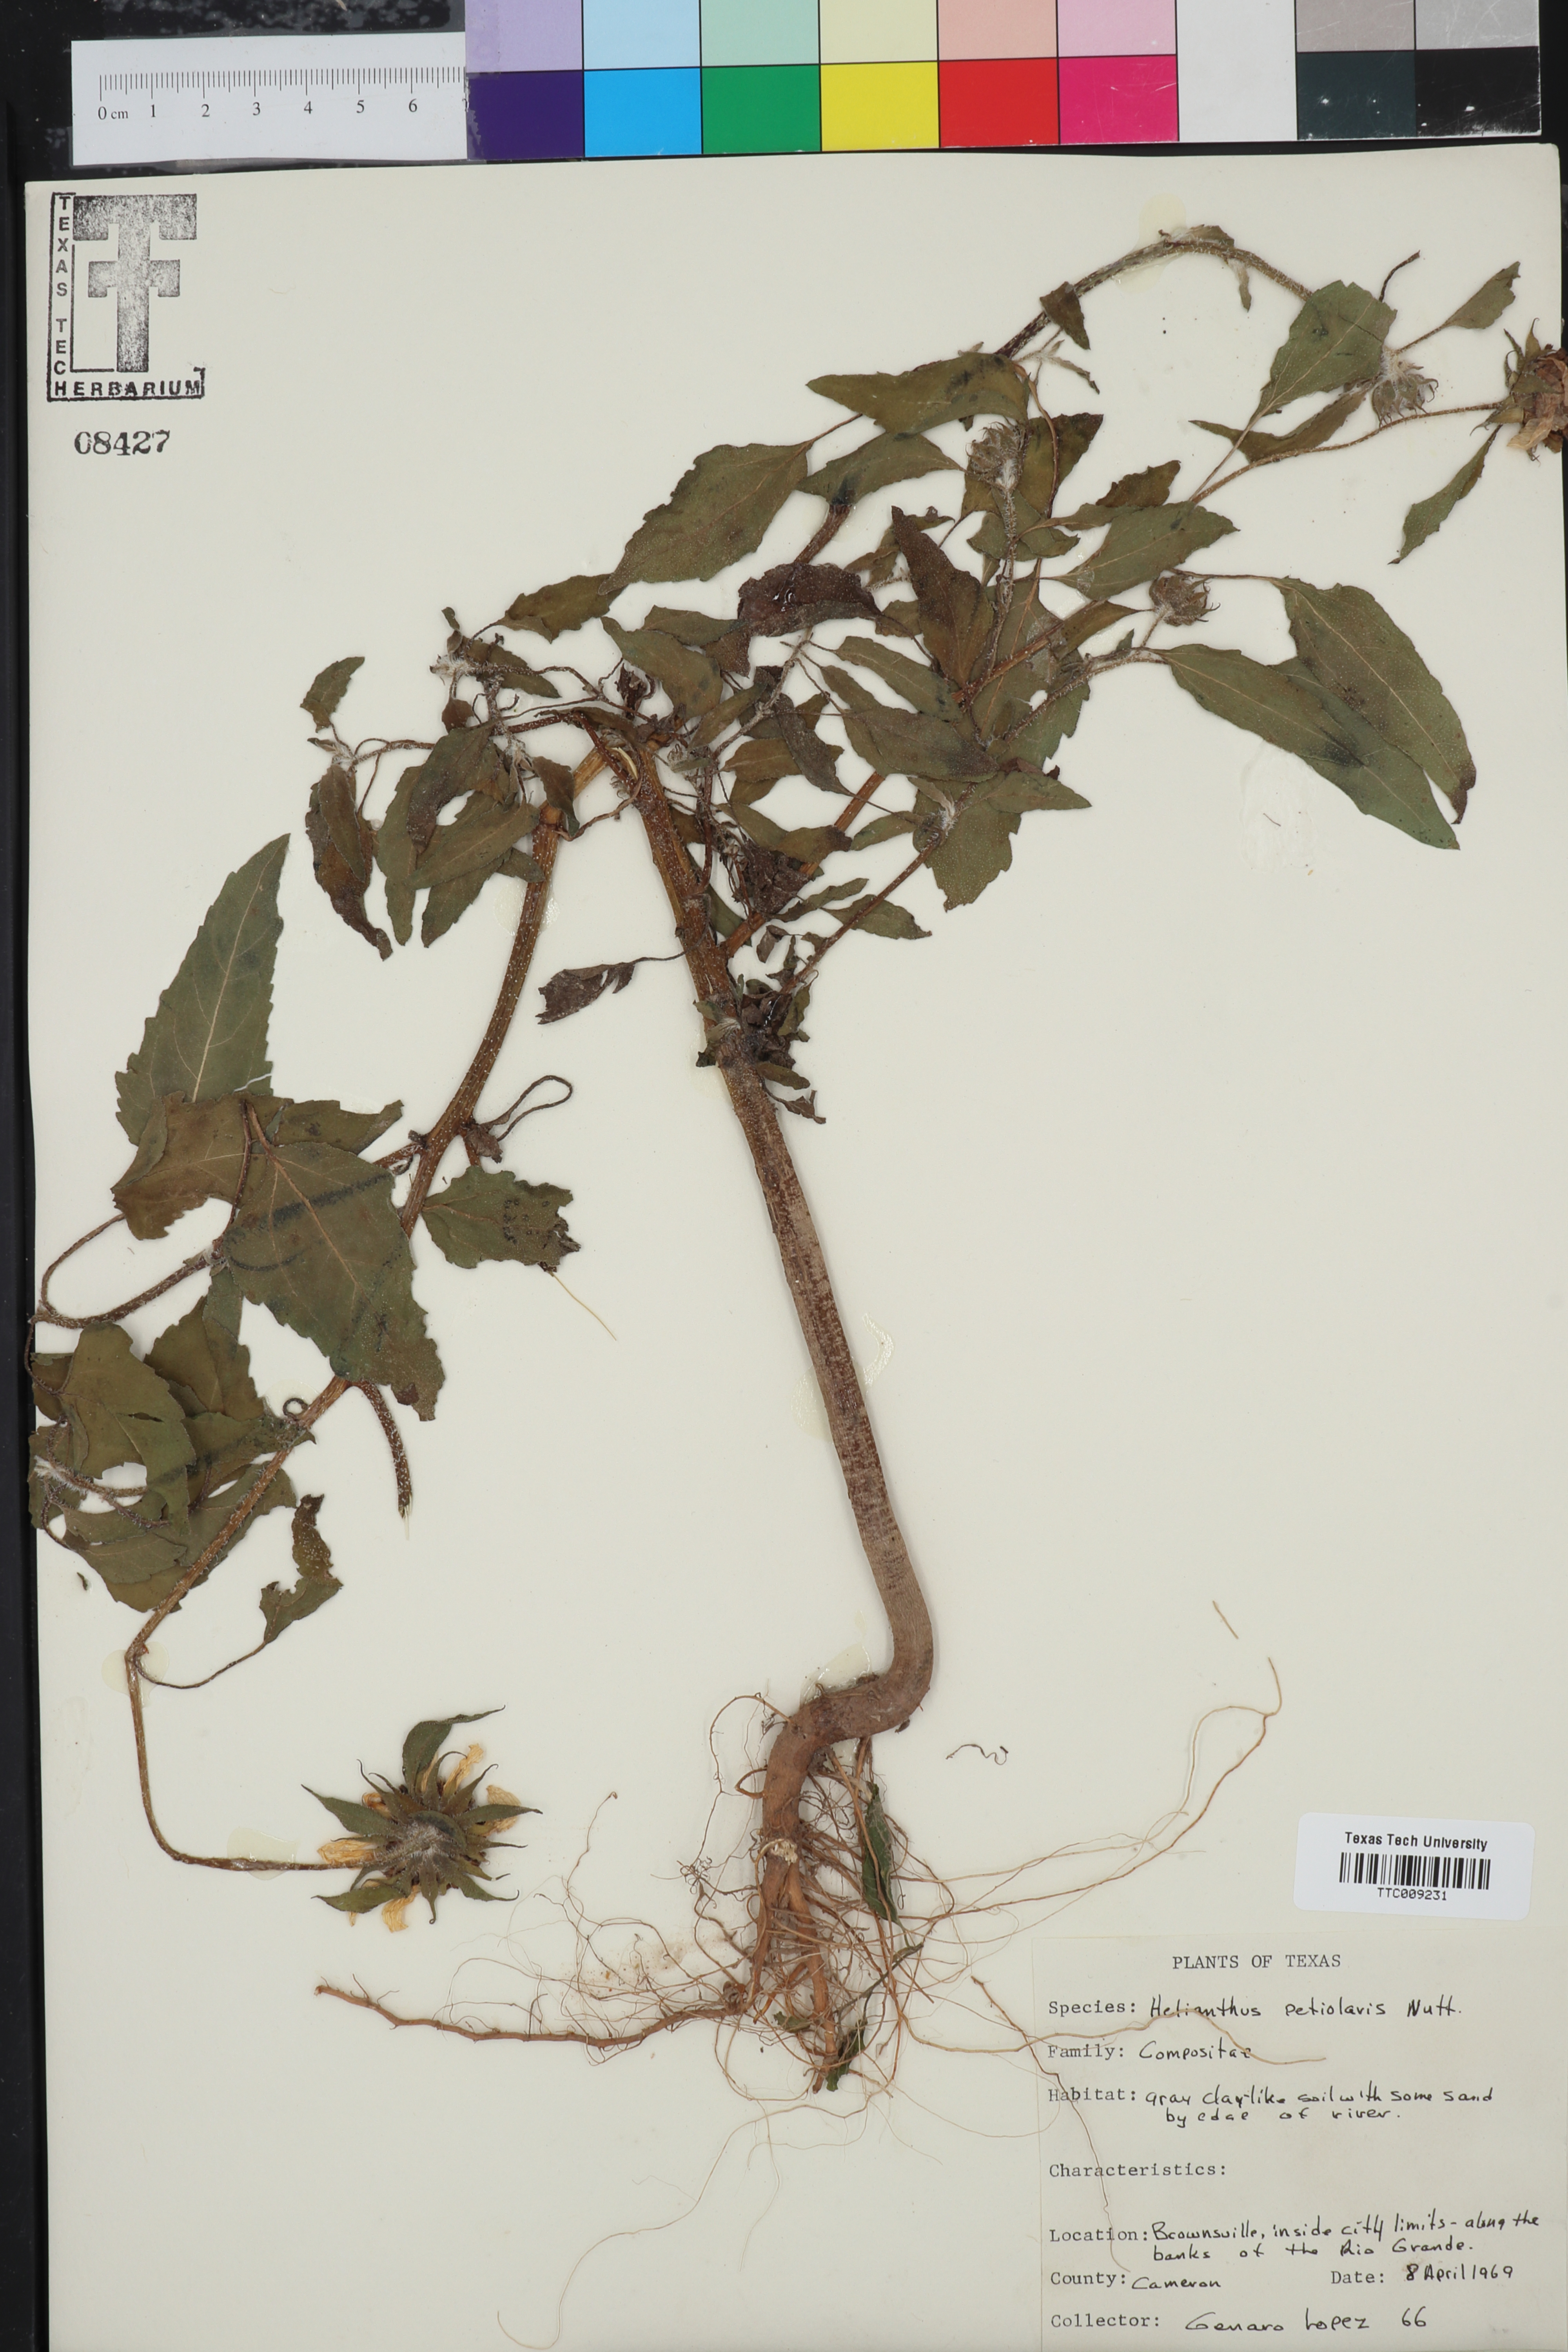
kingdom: Plantae
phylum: Tracheophyta
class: Magnoliopsida
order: Asterales
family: Asteraceae
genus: Helianthus
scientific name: Helianthus petiolaris
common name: Lesser sunflower
